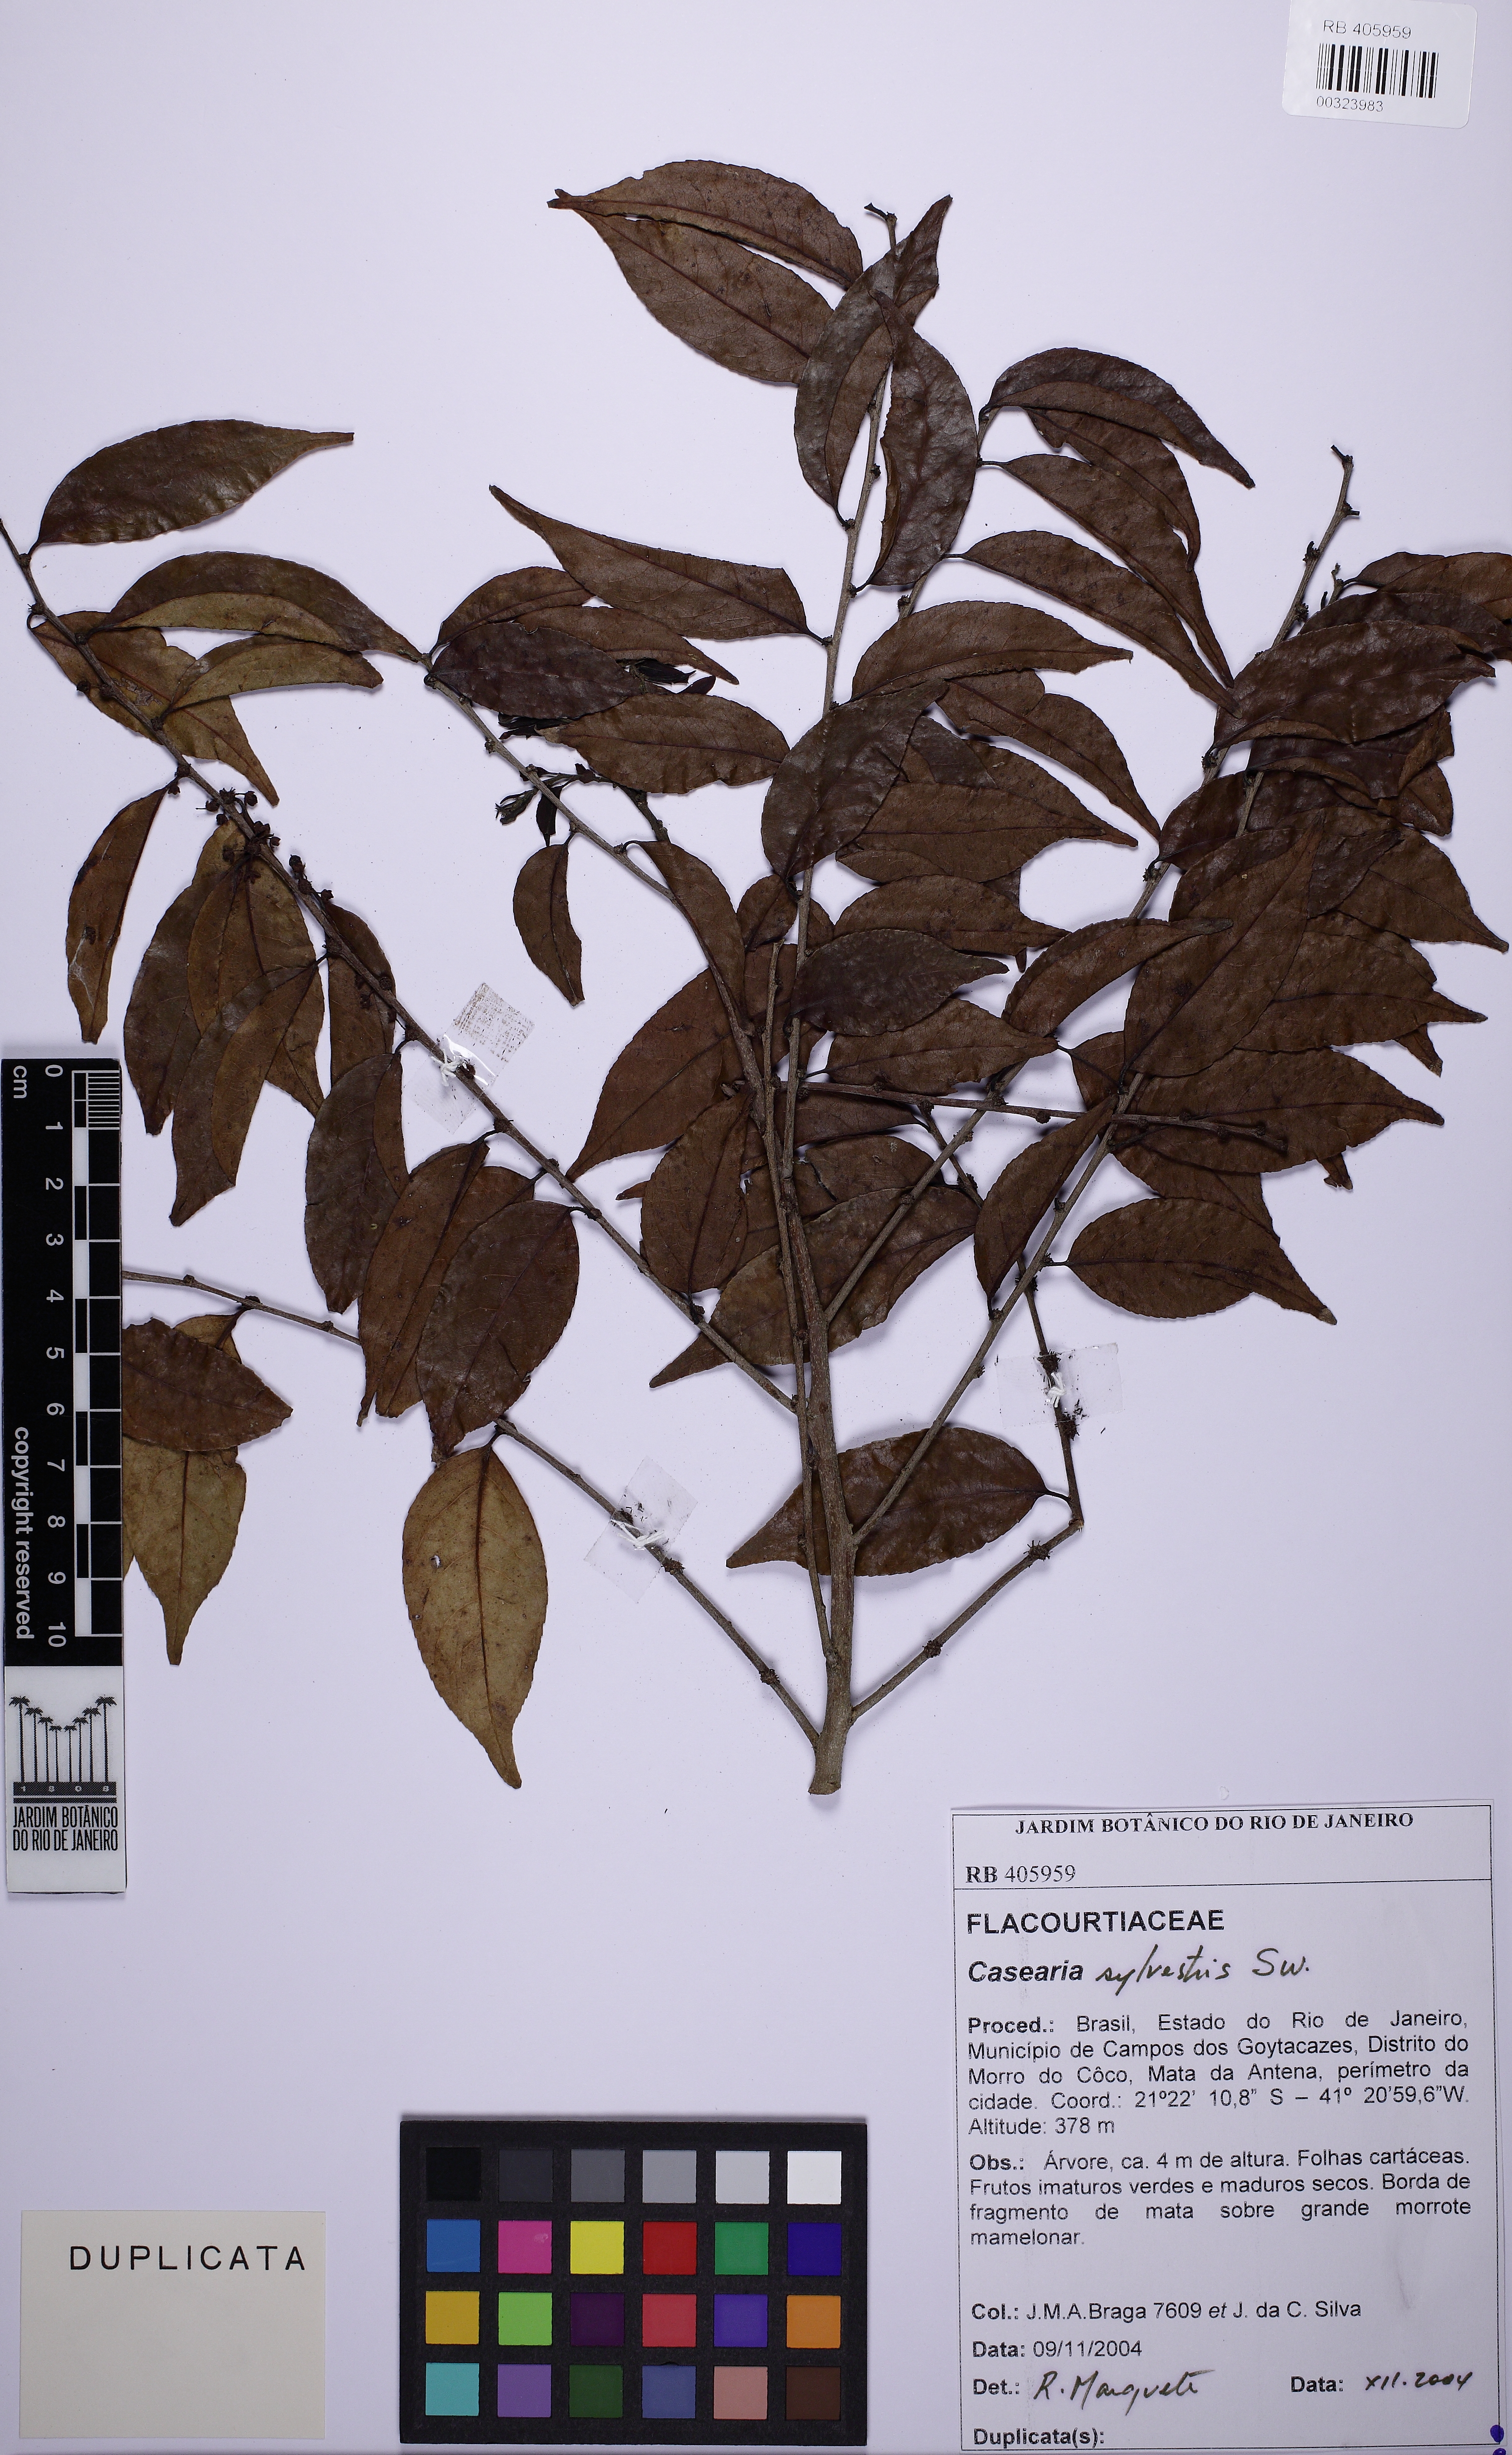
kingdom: Plantae
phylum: Tracheophyta
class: Magnoliopsida
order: Malpighiales
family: Salicaceae
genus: Casearia
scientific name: Casearia sylvestris
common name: Wild sage
